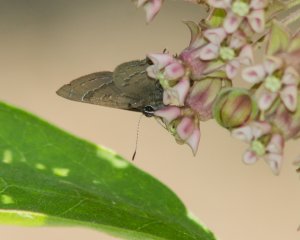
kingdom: Animalia
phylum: Arthropoda
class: Insecta
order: Lepidoptera
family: Lycaenidae
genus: Satyrium
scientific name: Satyrium calanus
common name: Banded Hairstreak
